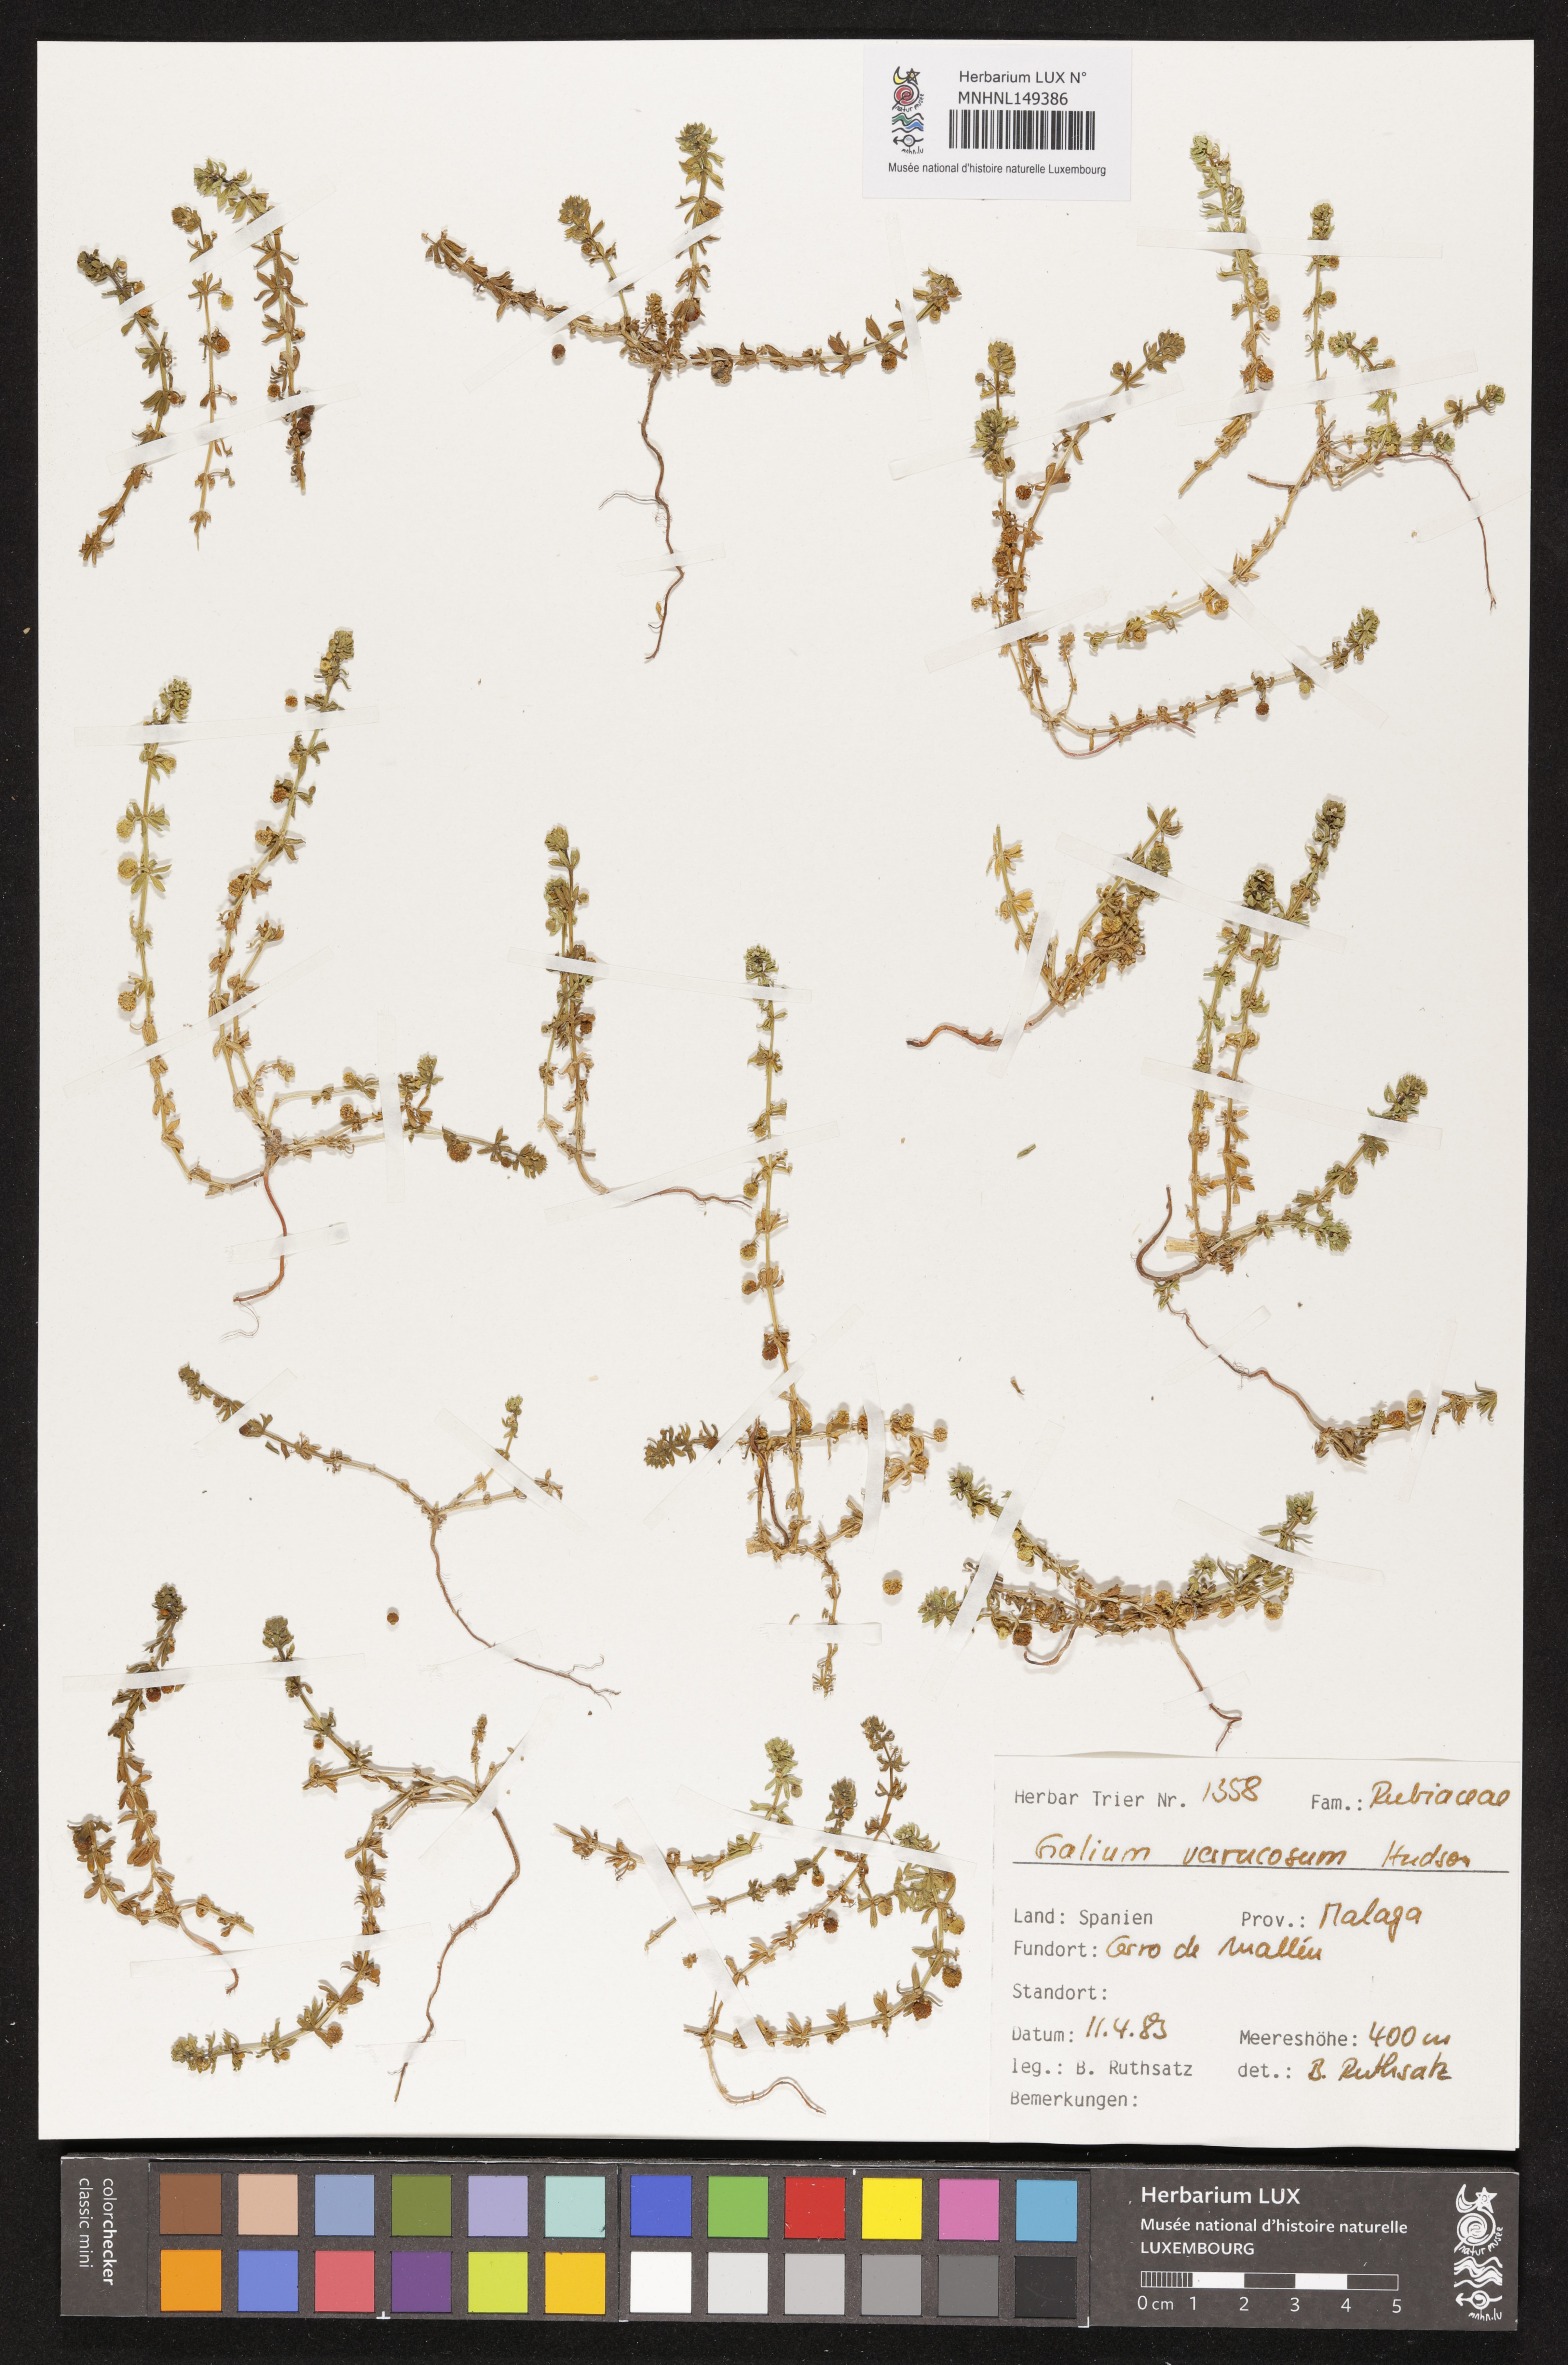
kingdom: Plantae
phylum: Tracheophyta
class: Magnoliopsida
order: Gentianales
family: Rubiaceae
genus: Galium
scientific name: Galium verrucosum
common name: Warty bedstraw
